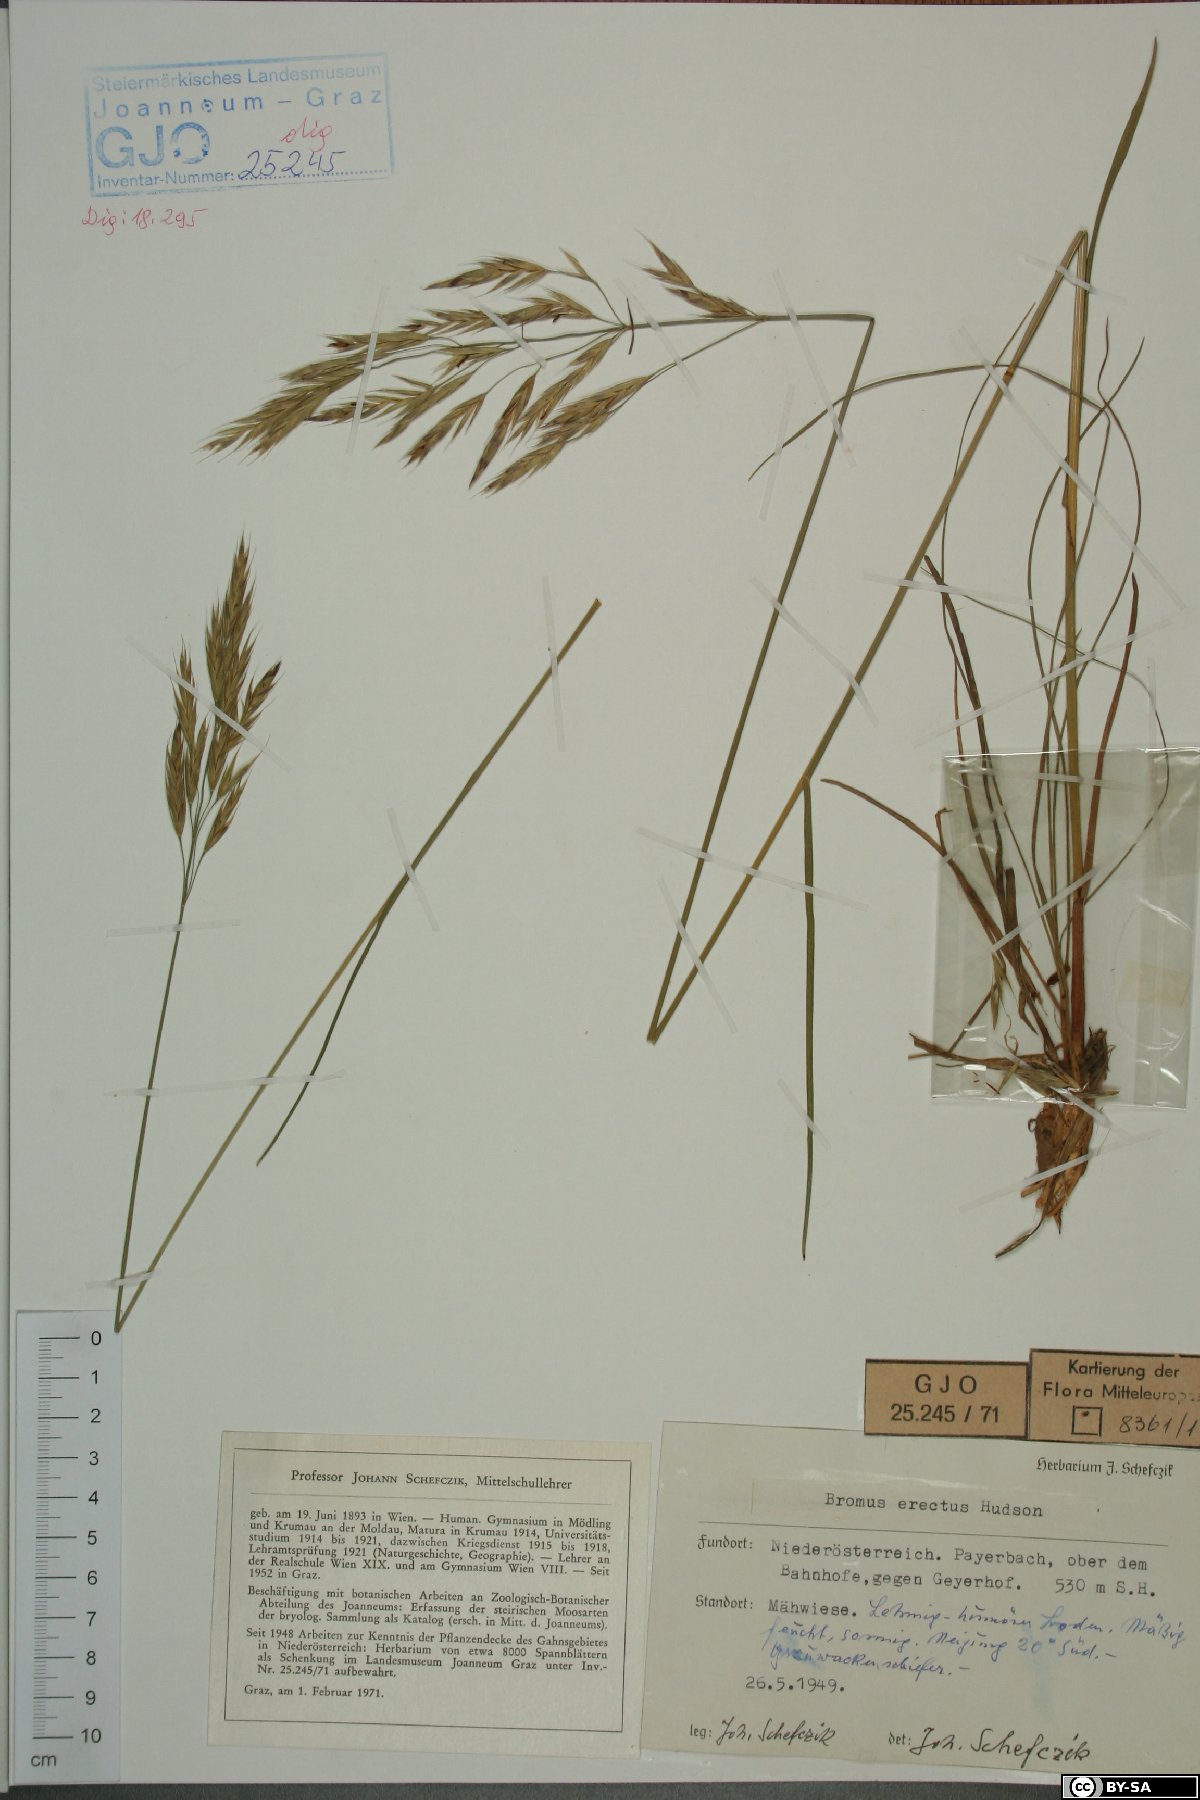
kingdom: Plantae
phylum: Tracheophyta
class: Liliopsida
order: Poales
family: Poaceae
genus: Bromus
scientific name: Bromus erectus
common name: Erect brome
